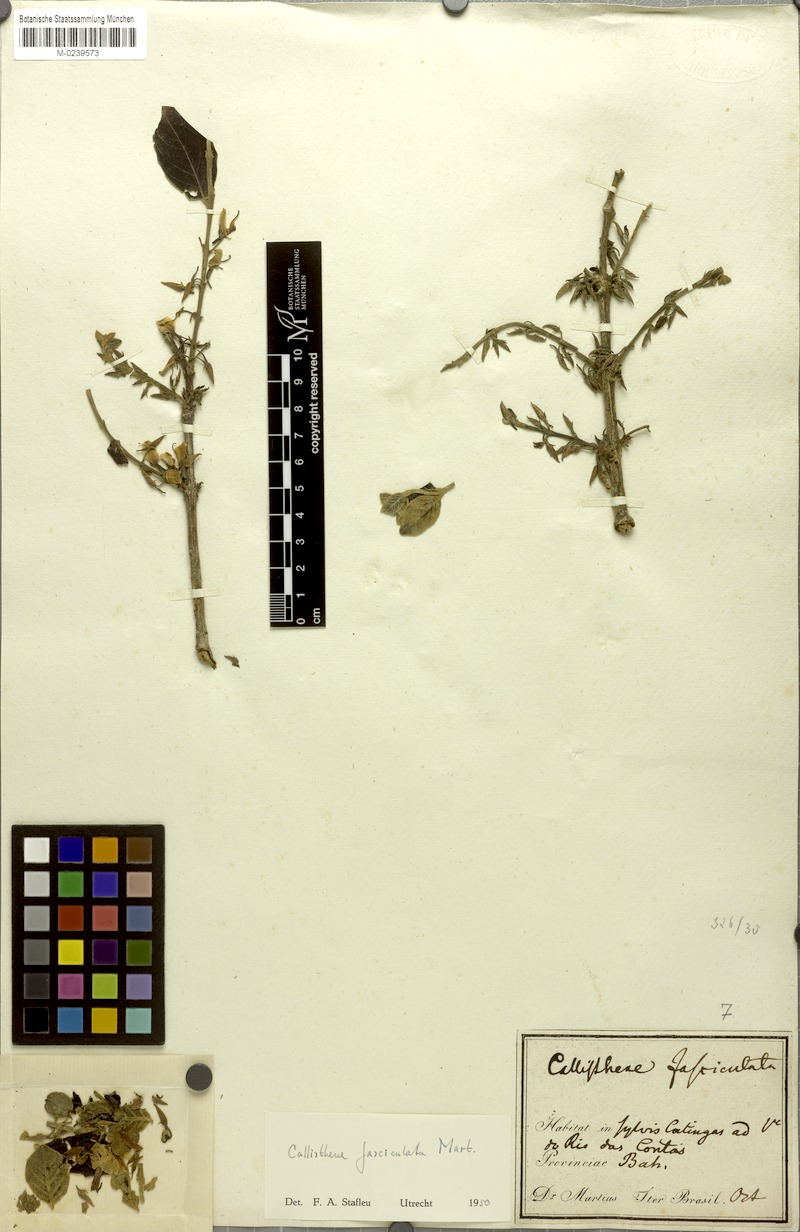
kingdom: Plantae
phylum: Tracheophyta
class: Magnoliopsida
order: Myrtales
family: Vochysiaceae
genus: Callisthene
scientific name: Callisthene fasciculata
